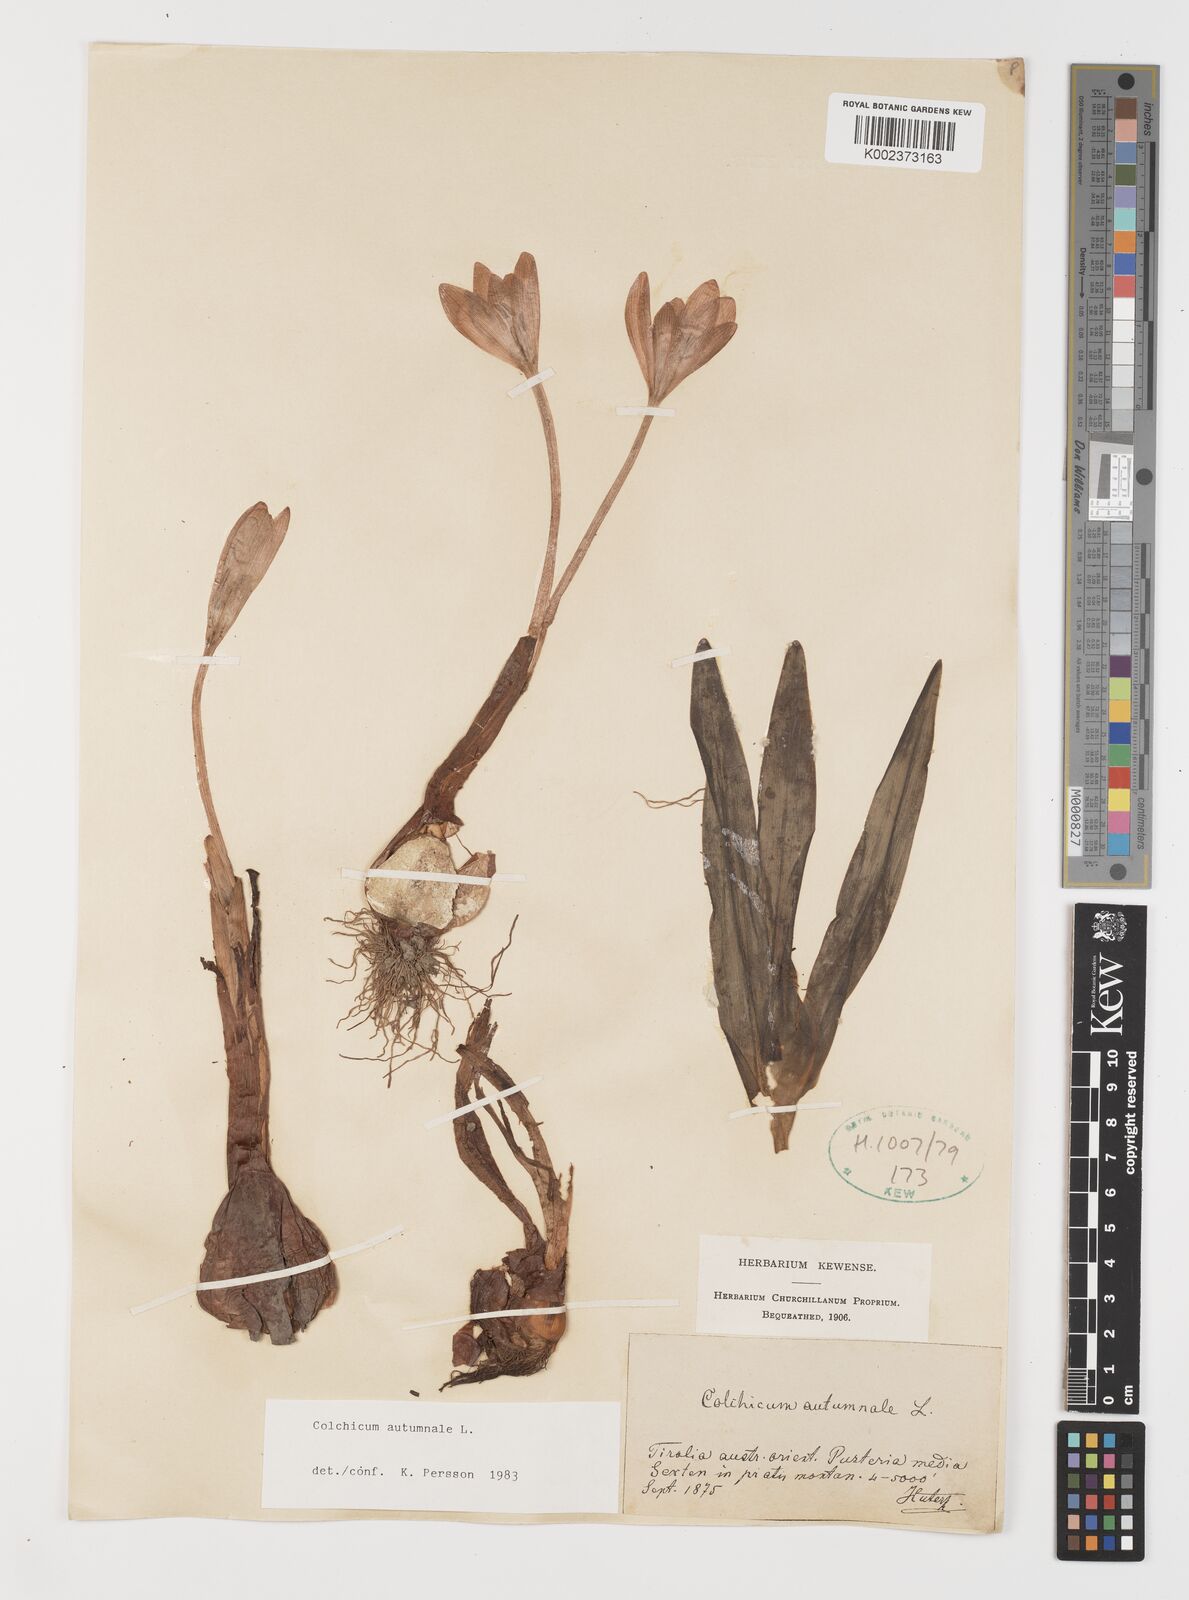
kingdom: Plantae
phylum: Tracheophyta
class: Liliopsida
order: Liliales
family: Colchicaceae
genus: Colchicum
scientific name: Colchicum autumnale
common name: Autumn crocus
